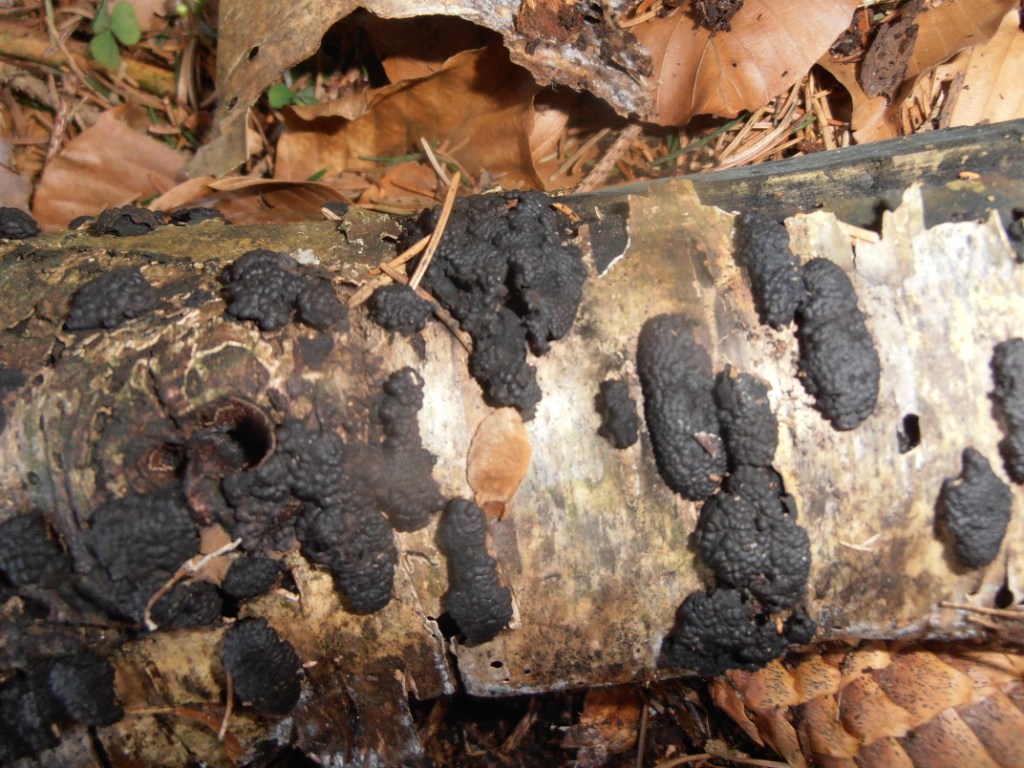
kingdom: Fungi
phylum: Ascomycota
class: Sordariomycetes
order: Xylariales
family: Hypoxylaceae
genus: Jackrogersella
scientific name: Jackrogersella multiformis
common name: foranderlig kulbær
